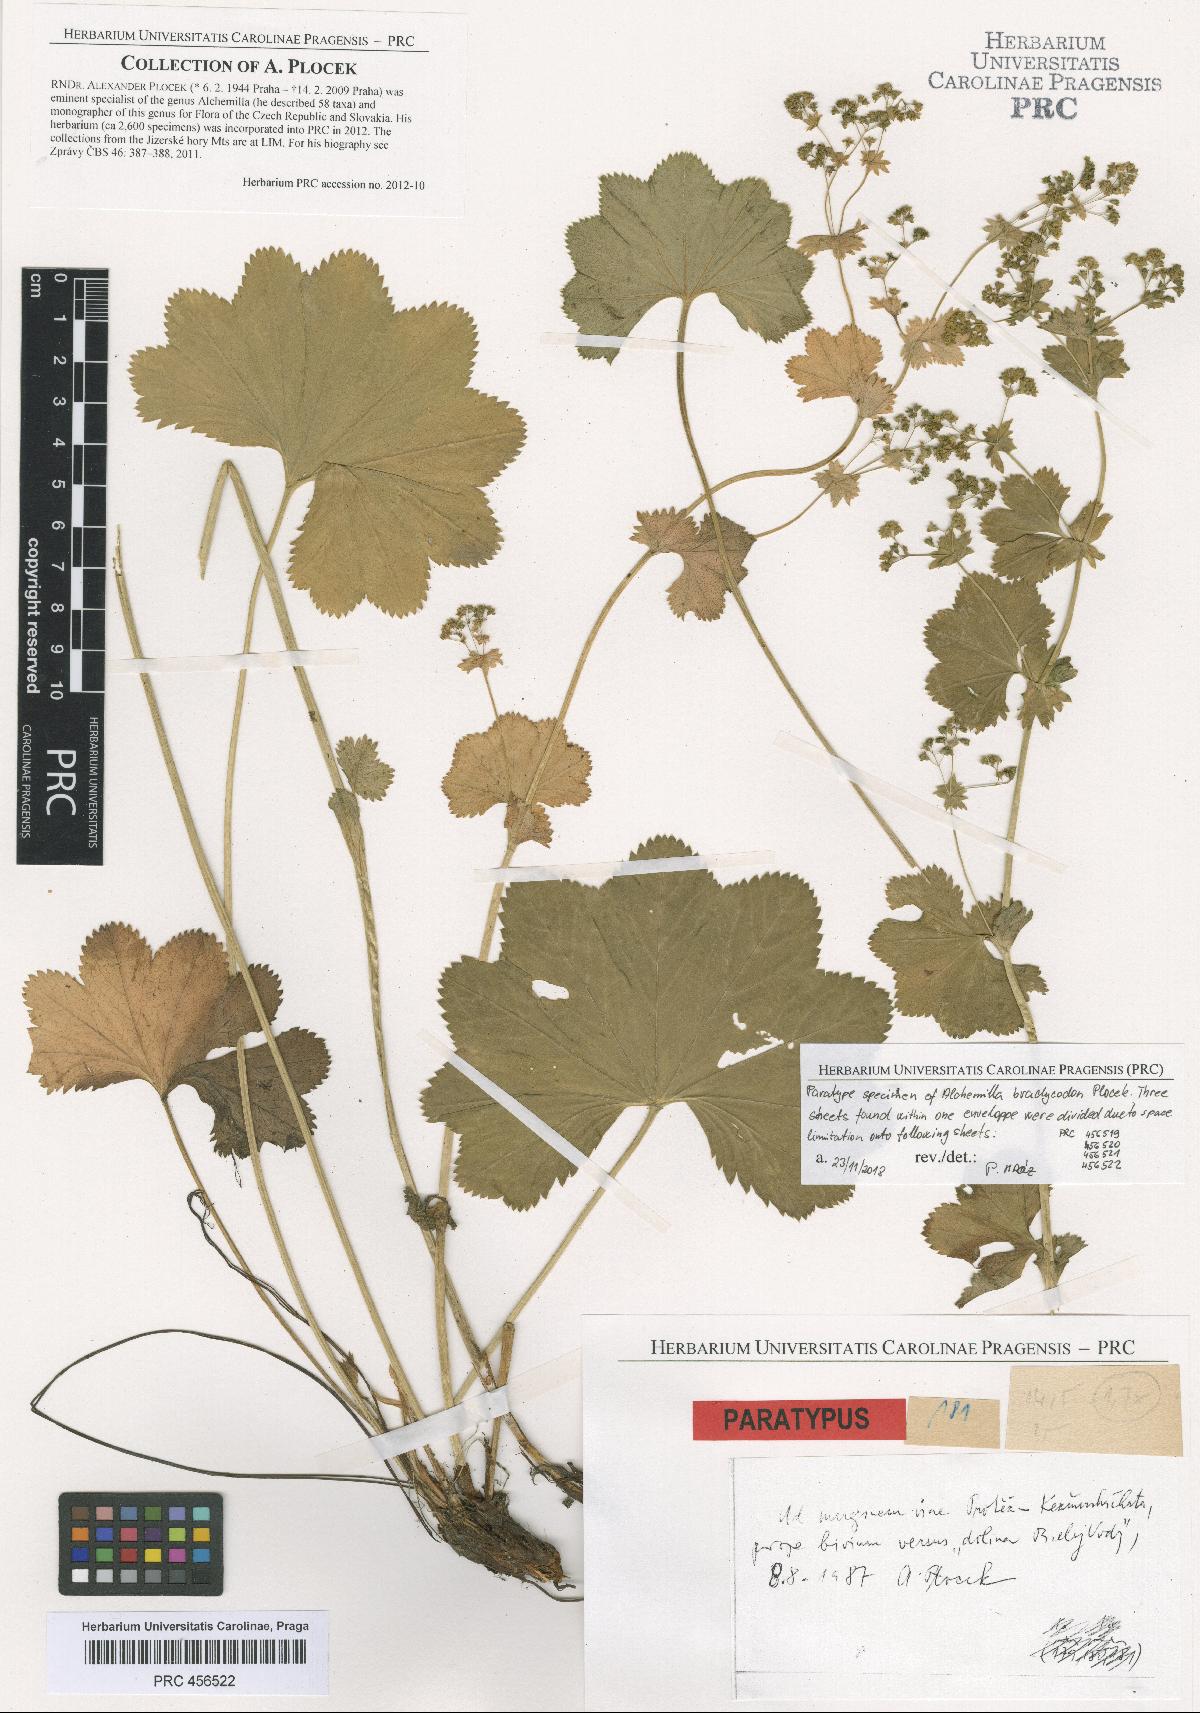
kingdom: Plantae
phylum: Tracheophyta
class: Magnoliopsida
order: Rosales
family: Rosaceae
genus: Alchemilla
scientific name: Alchemilla brachycodon
